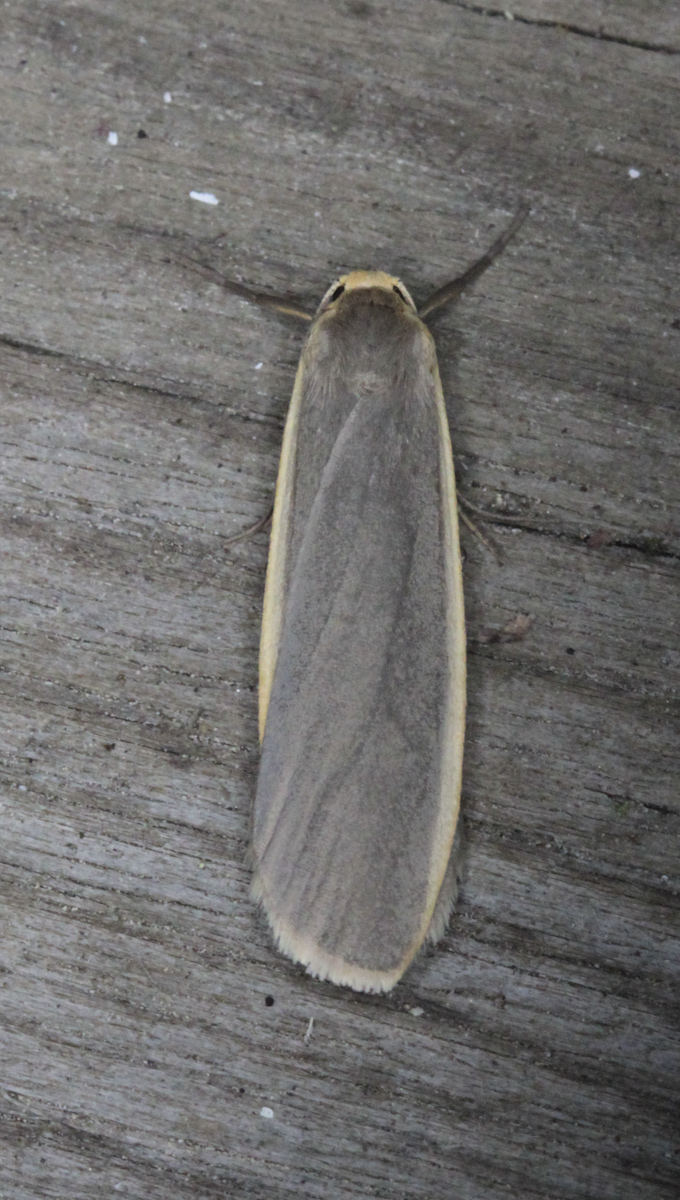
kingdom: Animalia
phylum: Arthropoda
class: Insecta
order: Lepidoptera
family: Erebidae
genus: Nyea
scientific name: Nyea lurideola
